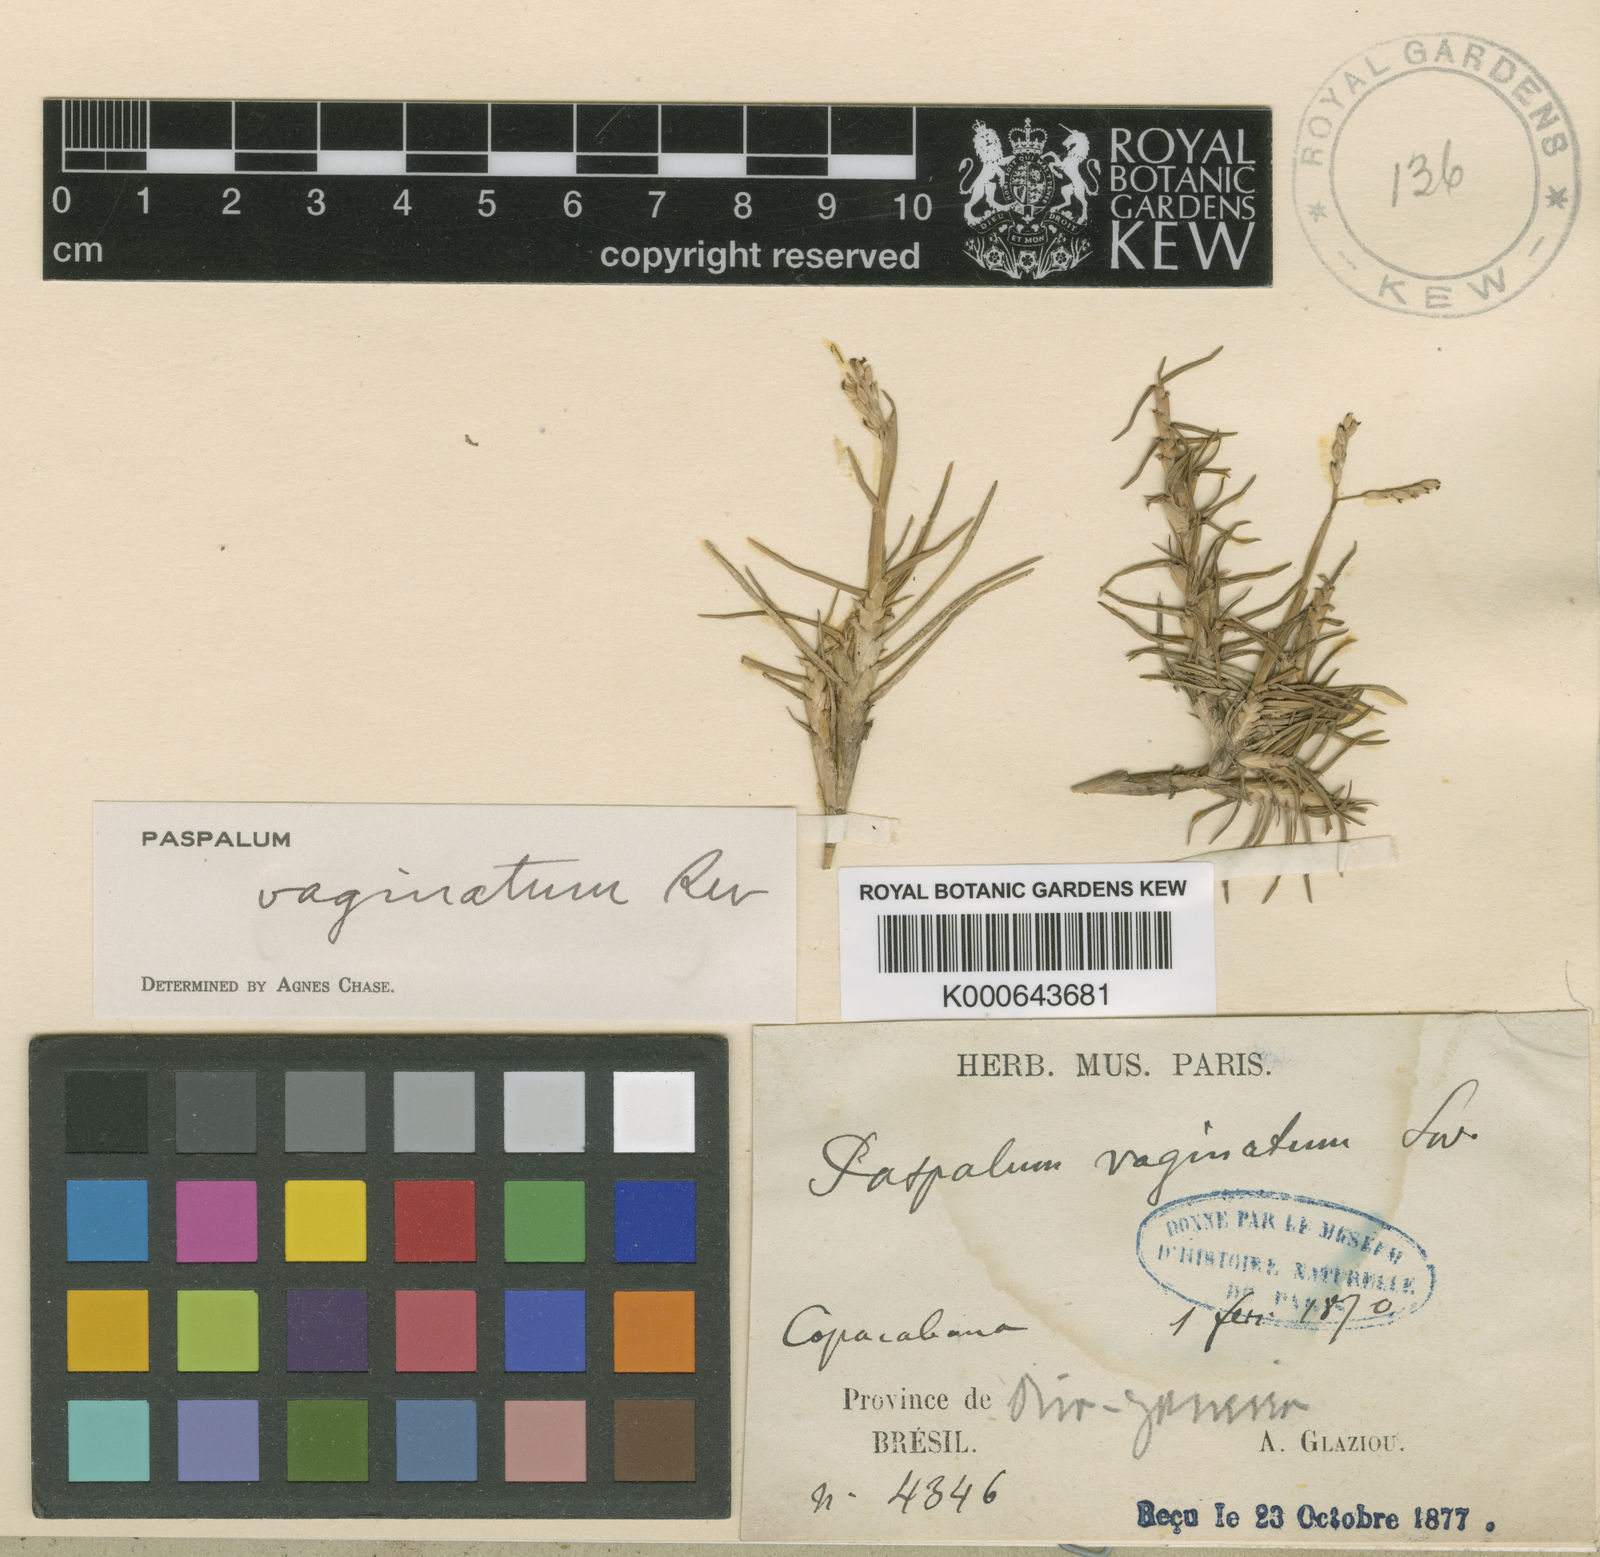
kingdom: Plantae
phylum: Tracheophyta
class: Liliopsida
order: Poales
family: Poaceae
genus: Paspalum
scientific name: Paspalum vaginatum
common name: Seashore paspalum
